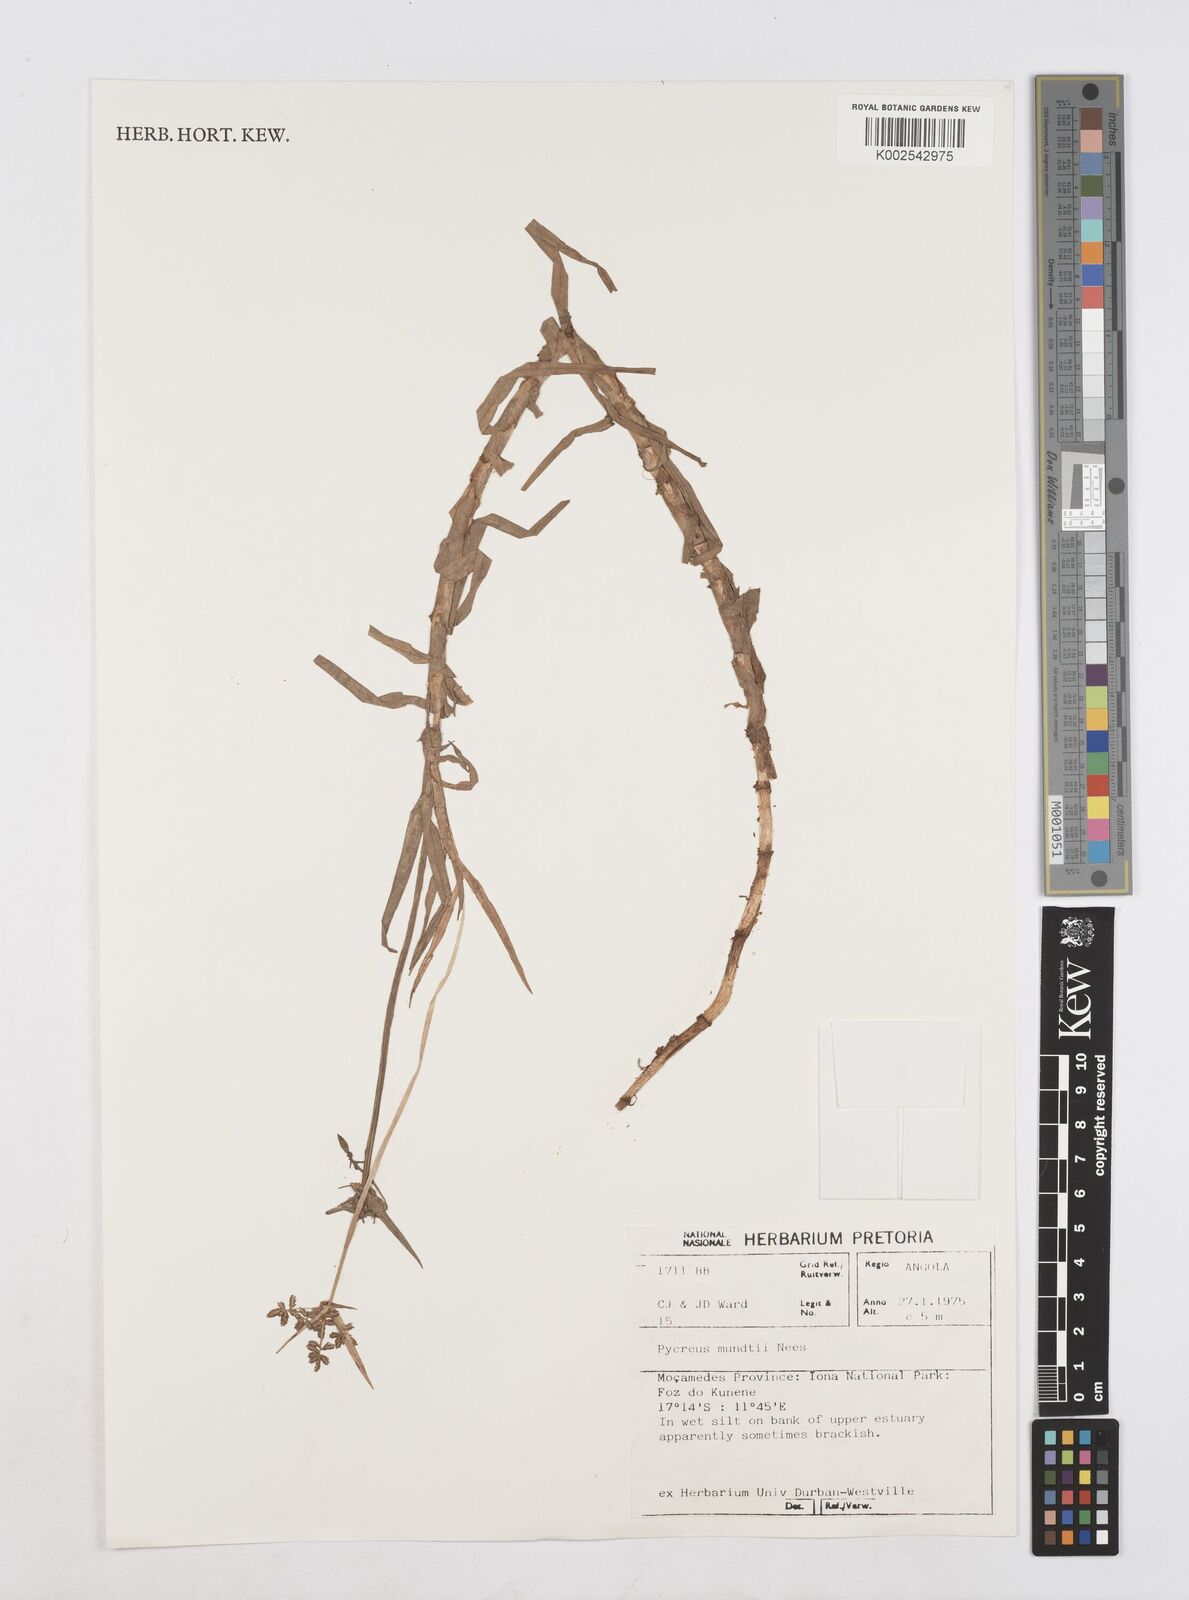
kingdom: Plantae
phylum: Tracheophyta
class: Liliopsida
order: Poales
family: Cyperaceae
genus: Cyperus
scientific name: Cyperus mundii
